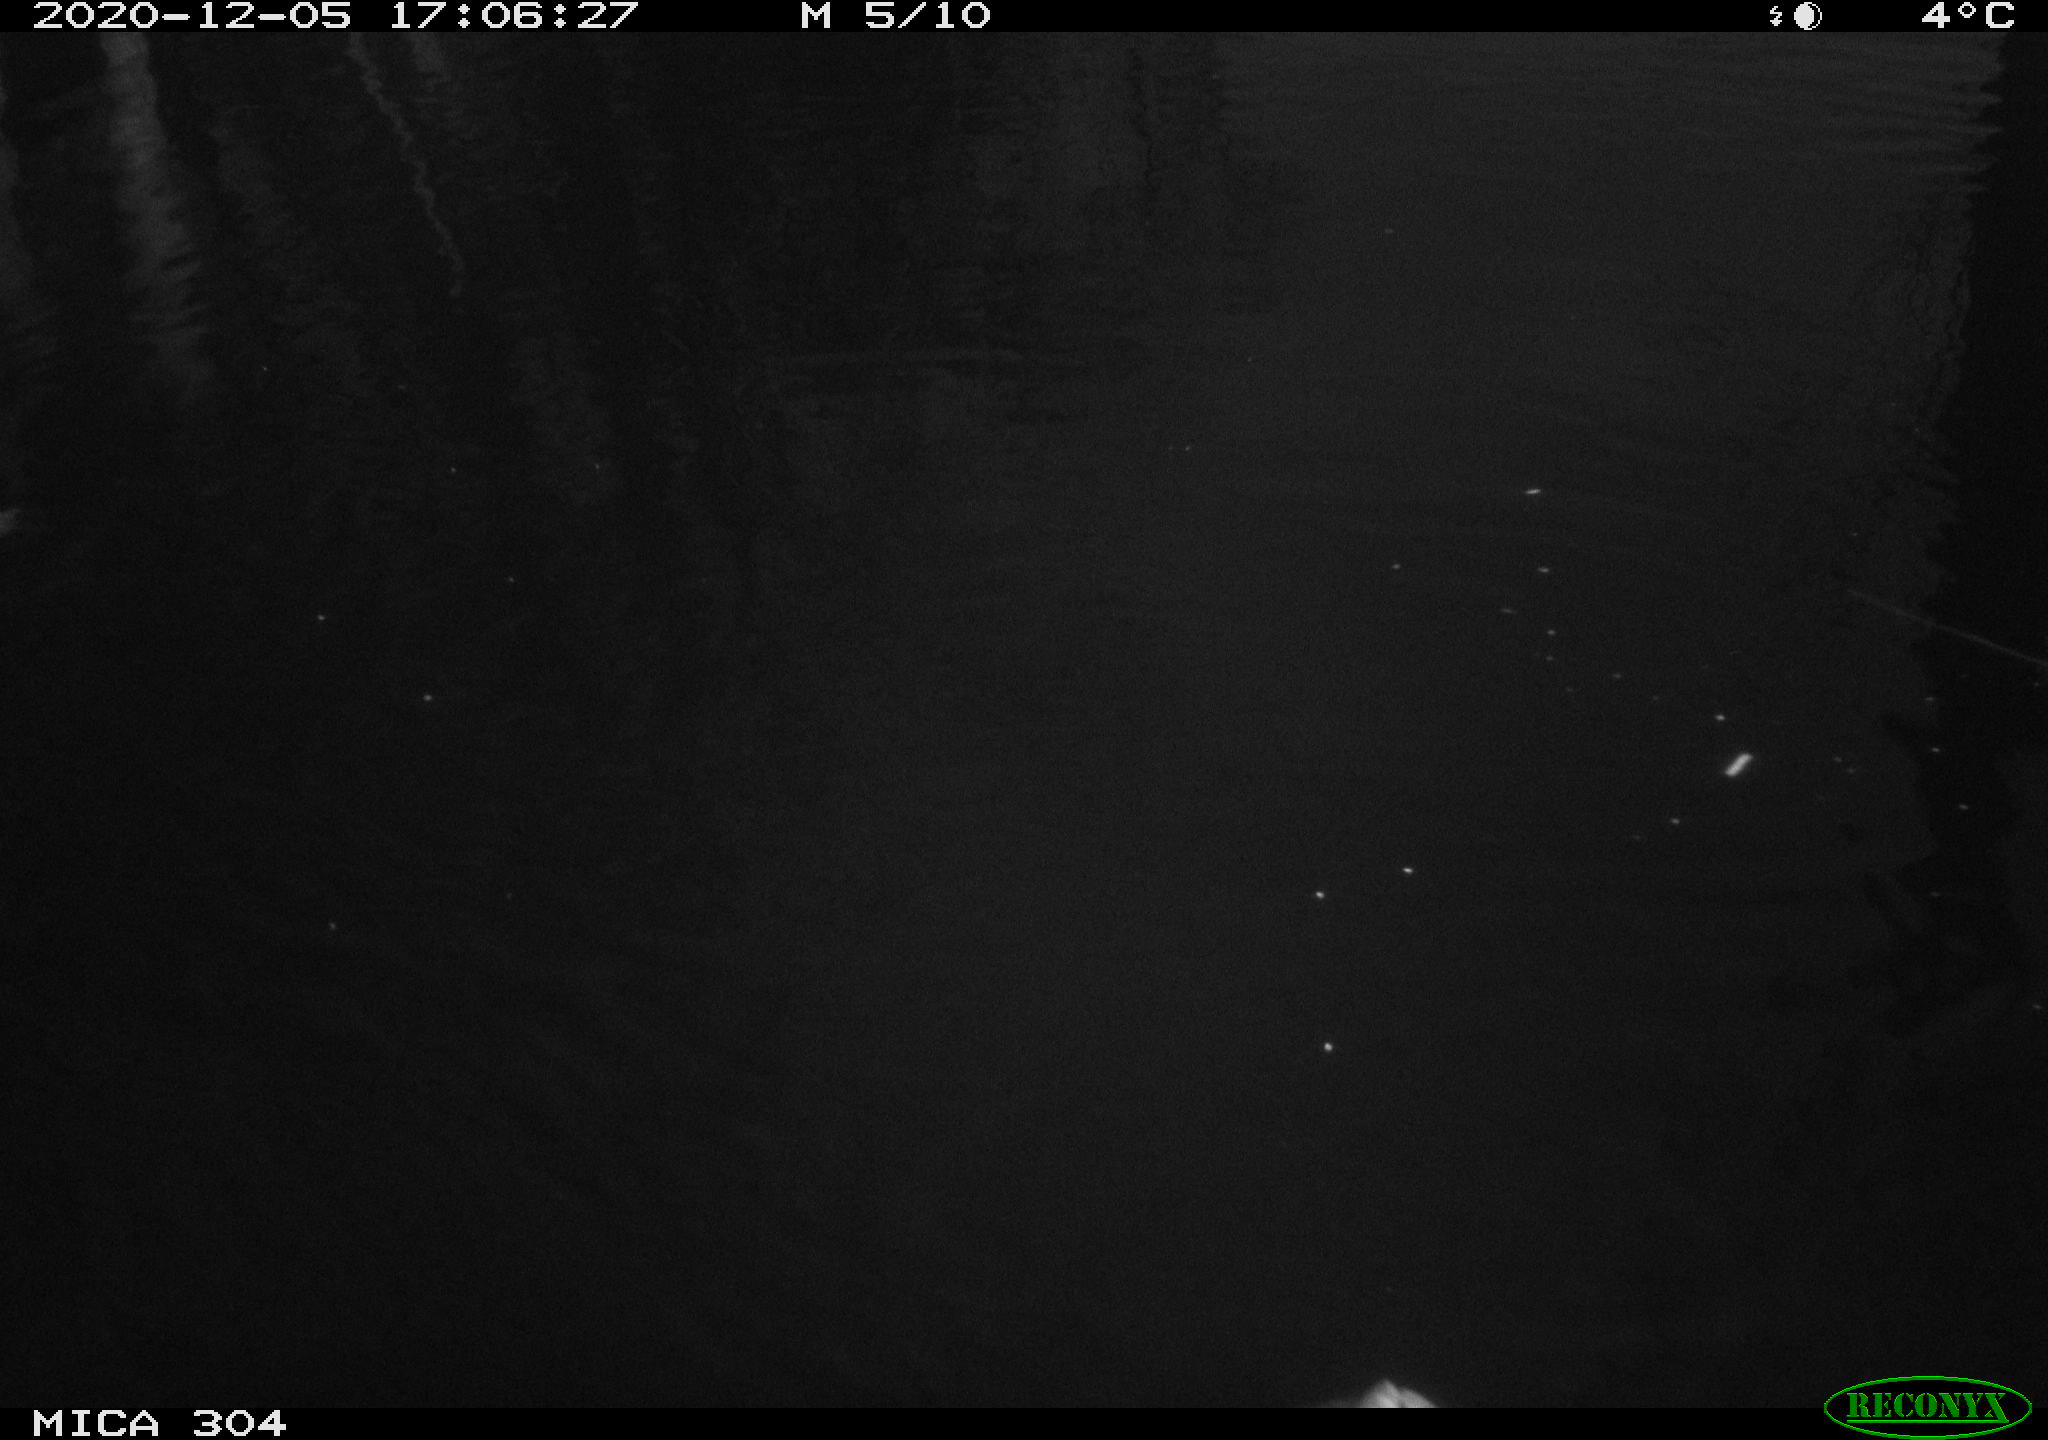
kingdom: Animalia
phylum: Chordata
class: Aves
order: Gruiformes
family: Rallidae
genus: Gallinula
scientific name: Gallinula chloropus
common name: Common moorhen
